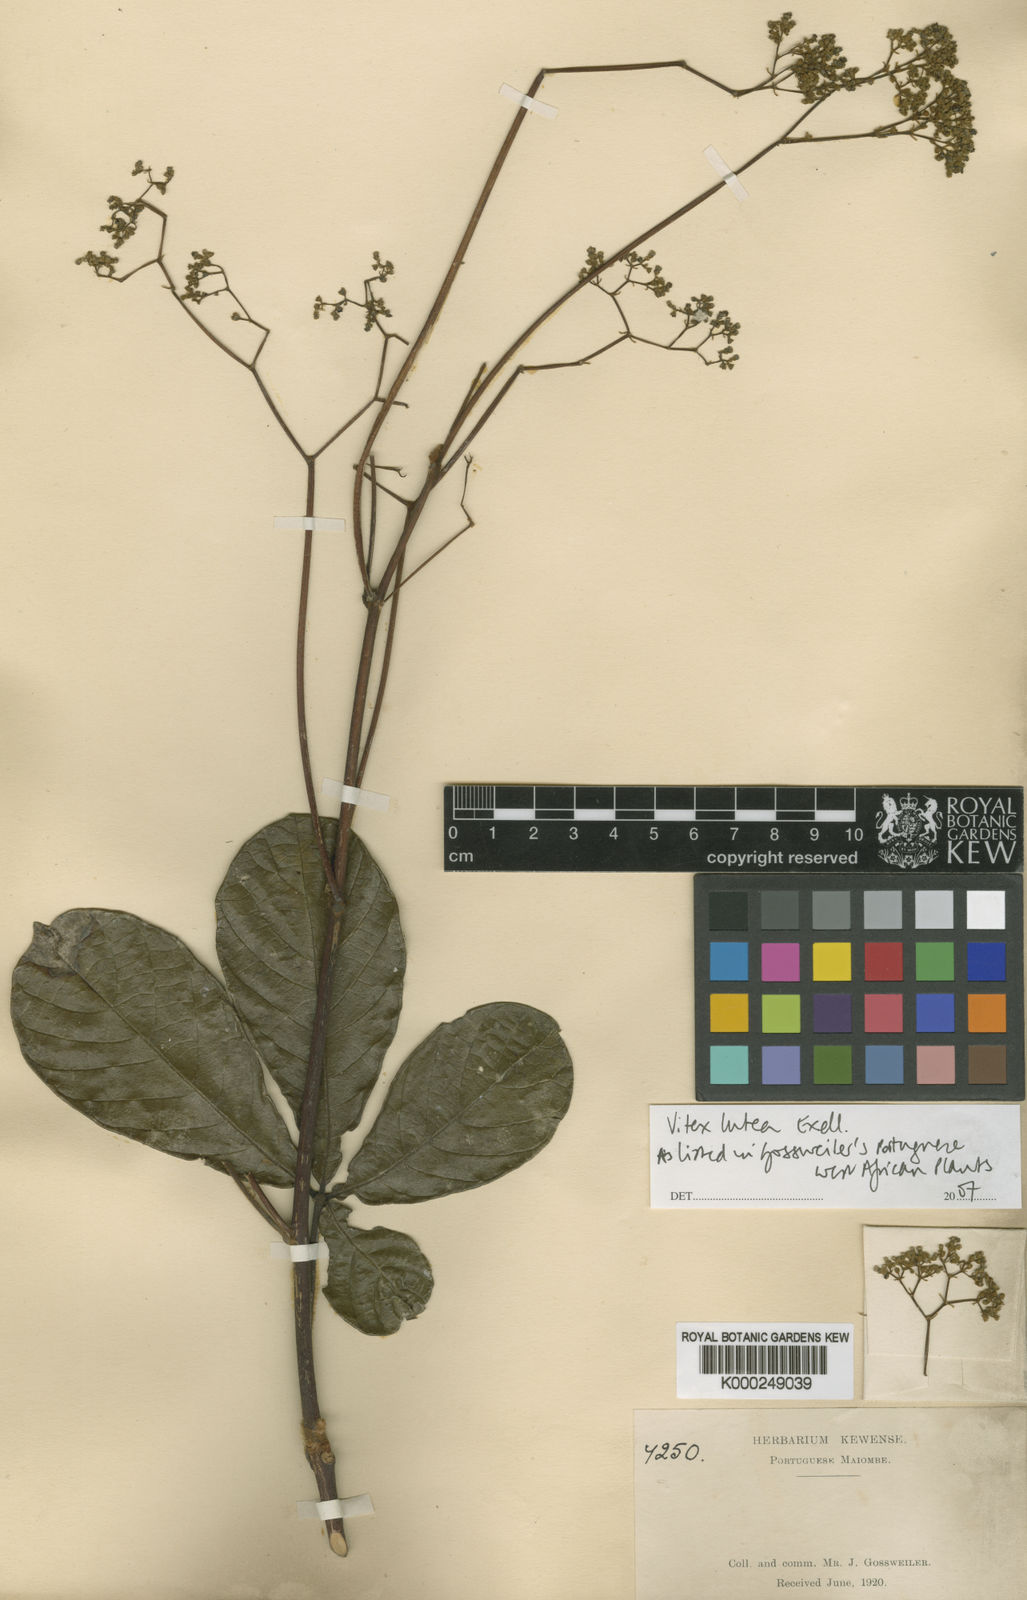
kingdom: Plantae
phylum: Tracheophyta
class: Magnoliopsida
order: Lamiales
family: Lamiaceae
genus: Vitex
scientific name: Vitex ciliata
